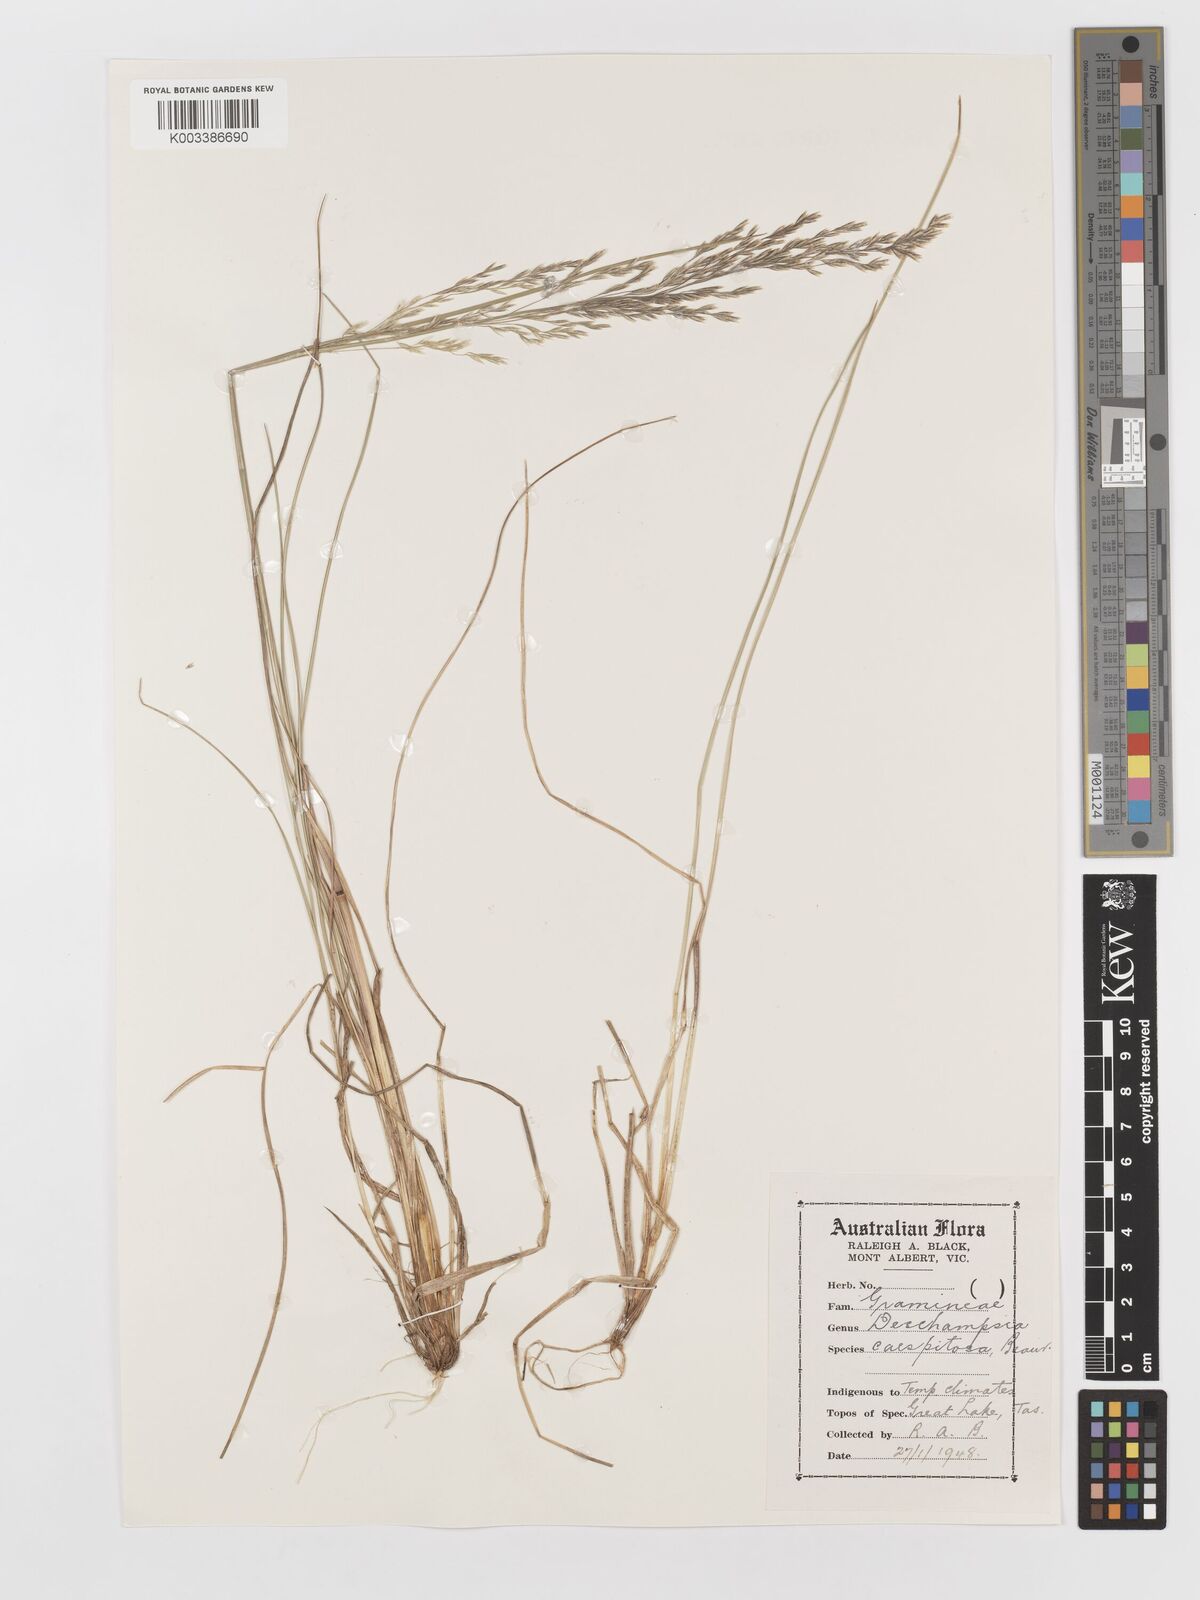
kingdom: Plantae
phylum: Tracheophyta
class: Liliopsida
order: Poales
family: Poaceae
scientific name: Poaceae
